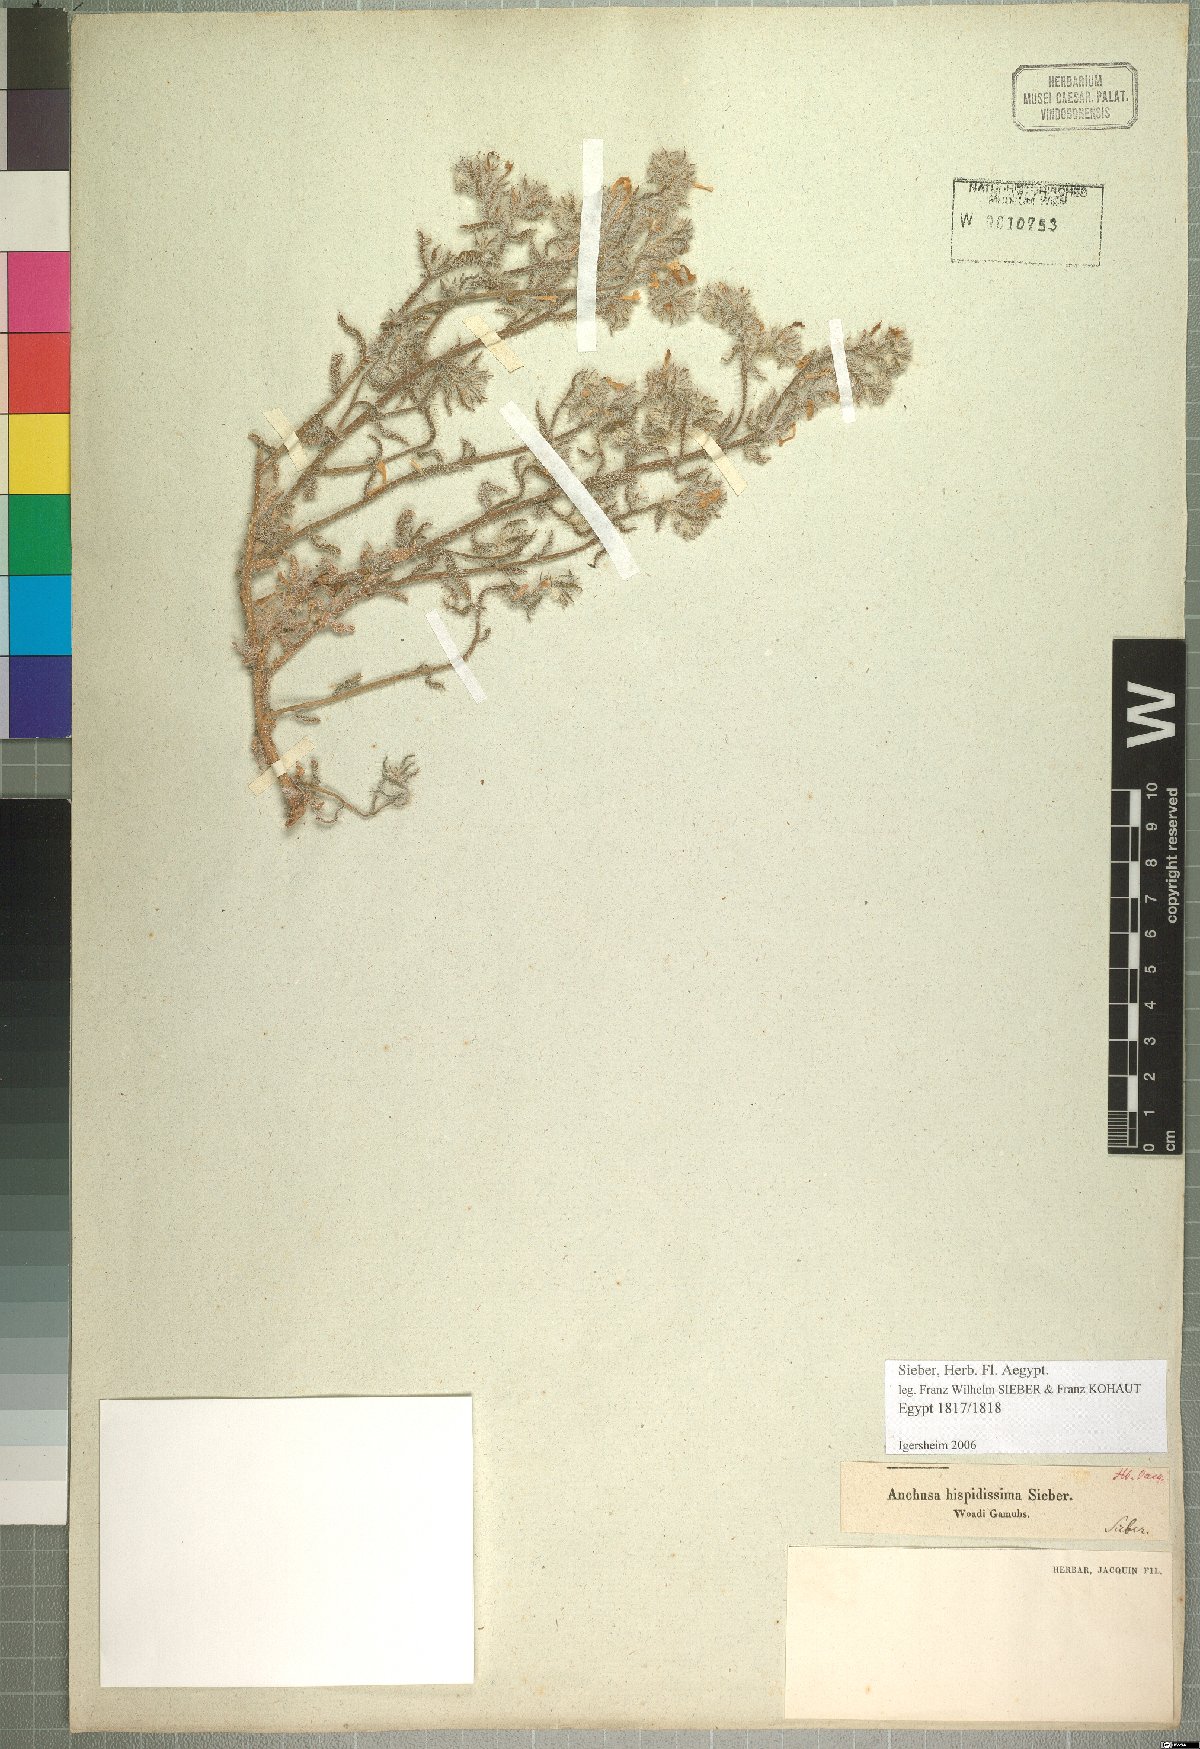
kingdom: Plantae
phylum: Tracheophyta
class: Magnoliopsida
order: Boraginales
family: Boraginaceae
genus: Arnebia
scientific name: Arnebia hispidissima
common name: Arabian-primrose
